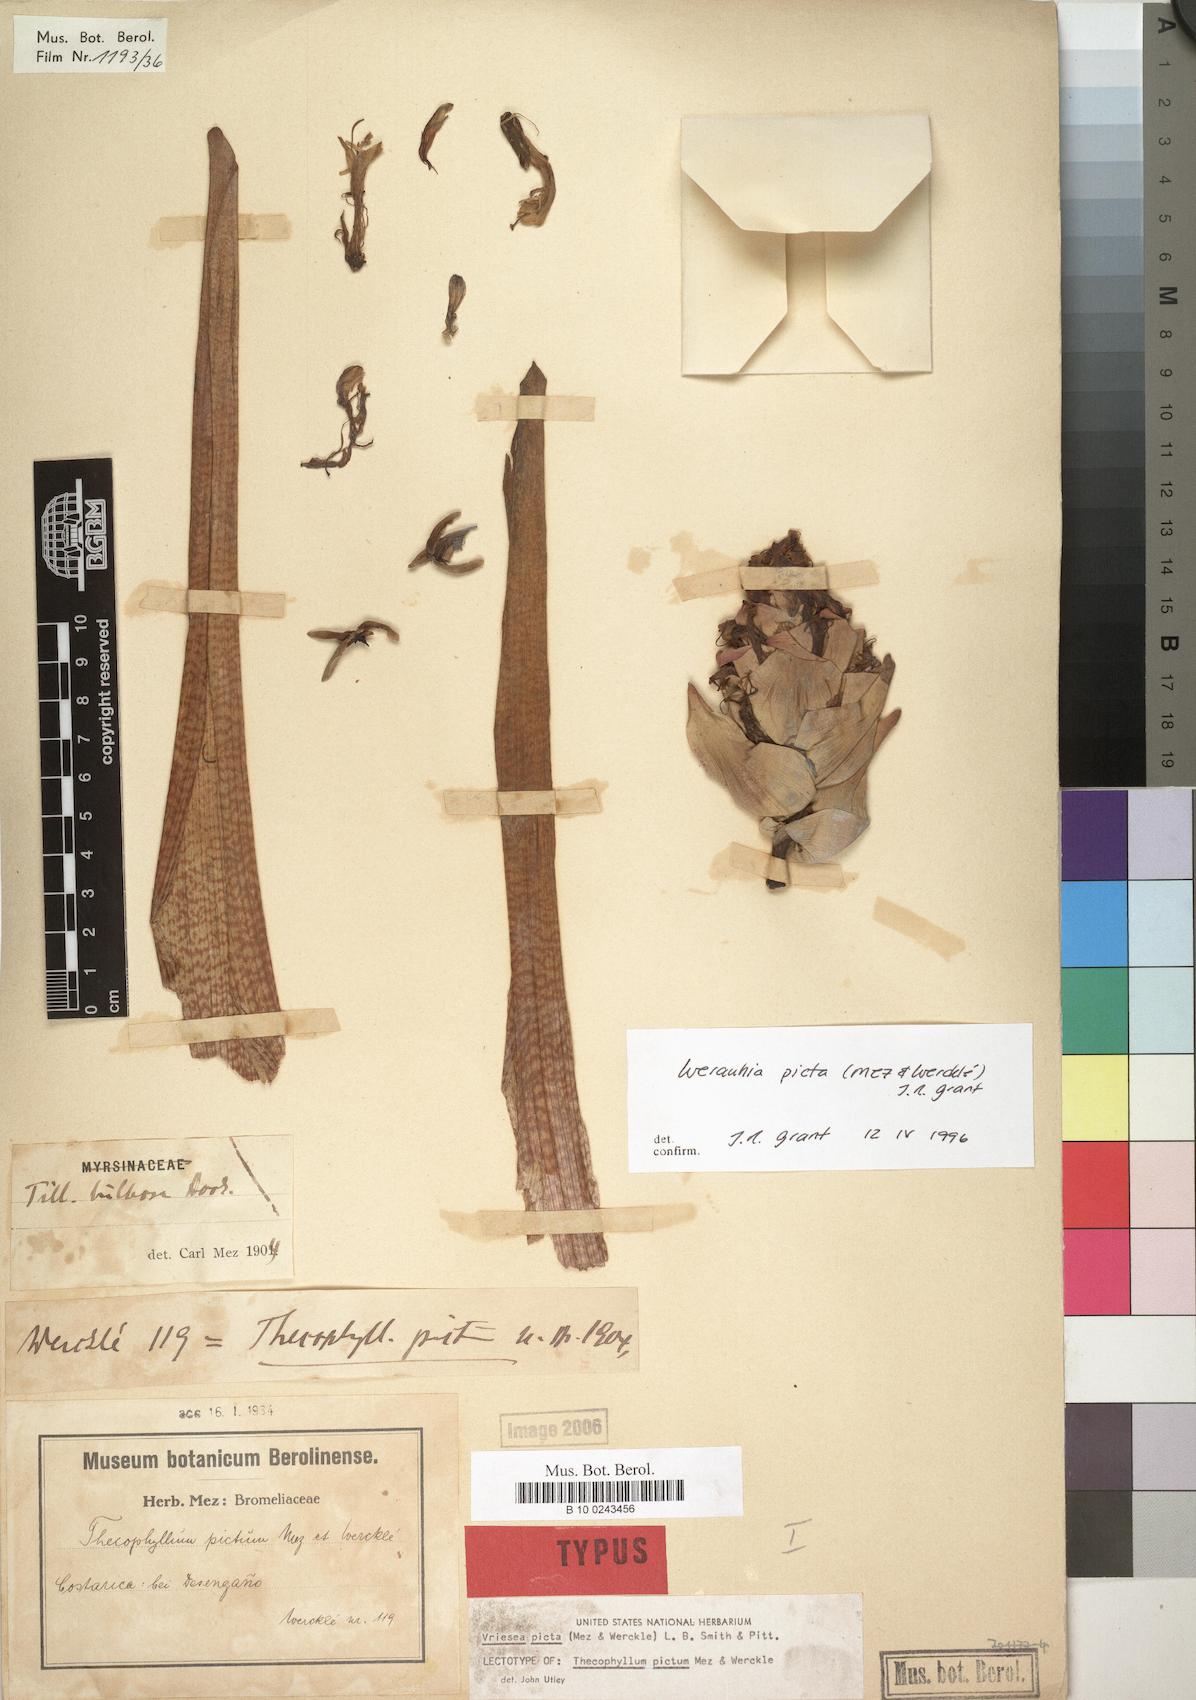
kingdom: Plantae
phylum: Tracheophyta
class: Liliopsida
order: Poales
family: Bromeliaceae
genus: Werauhia
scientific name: Werauhia picta
